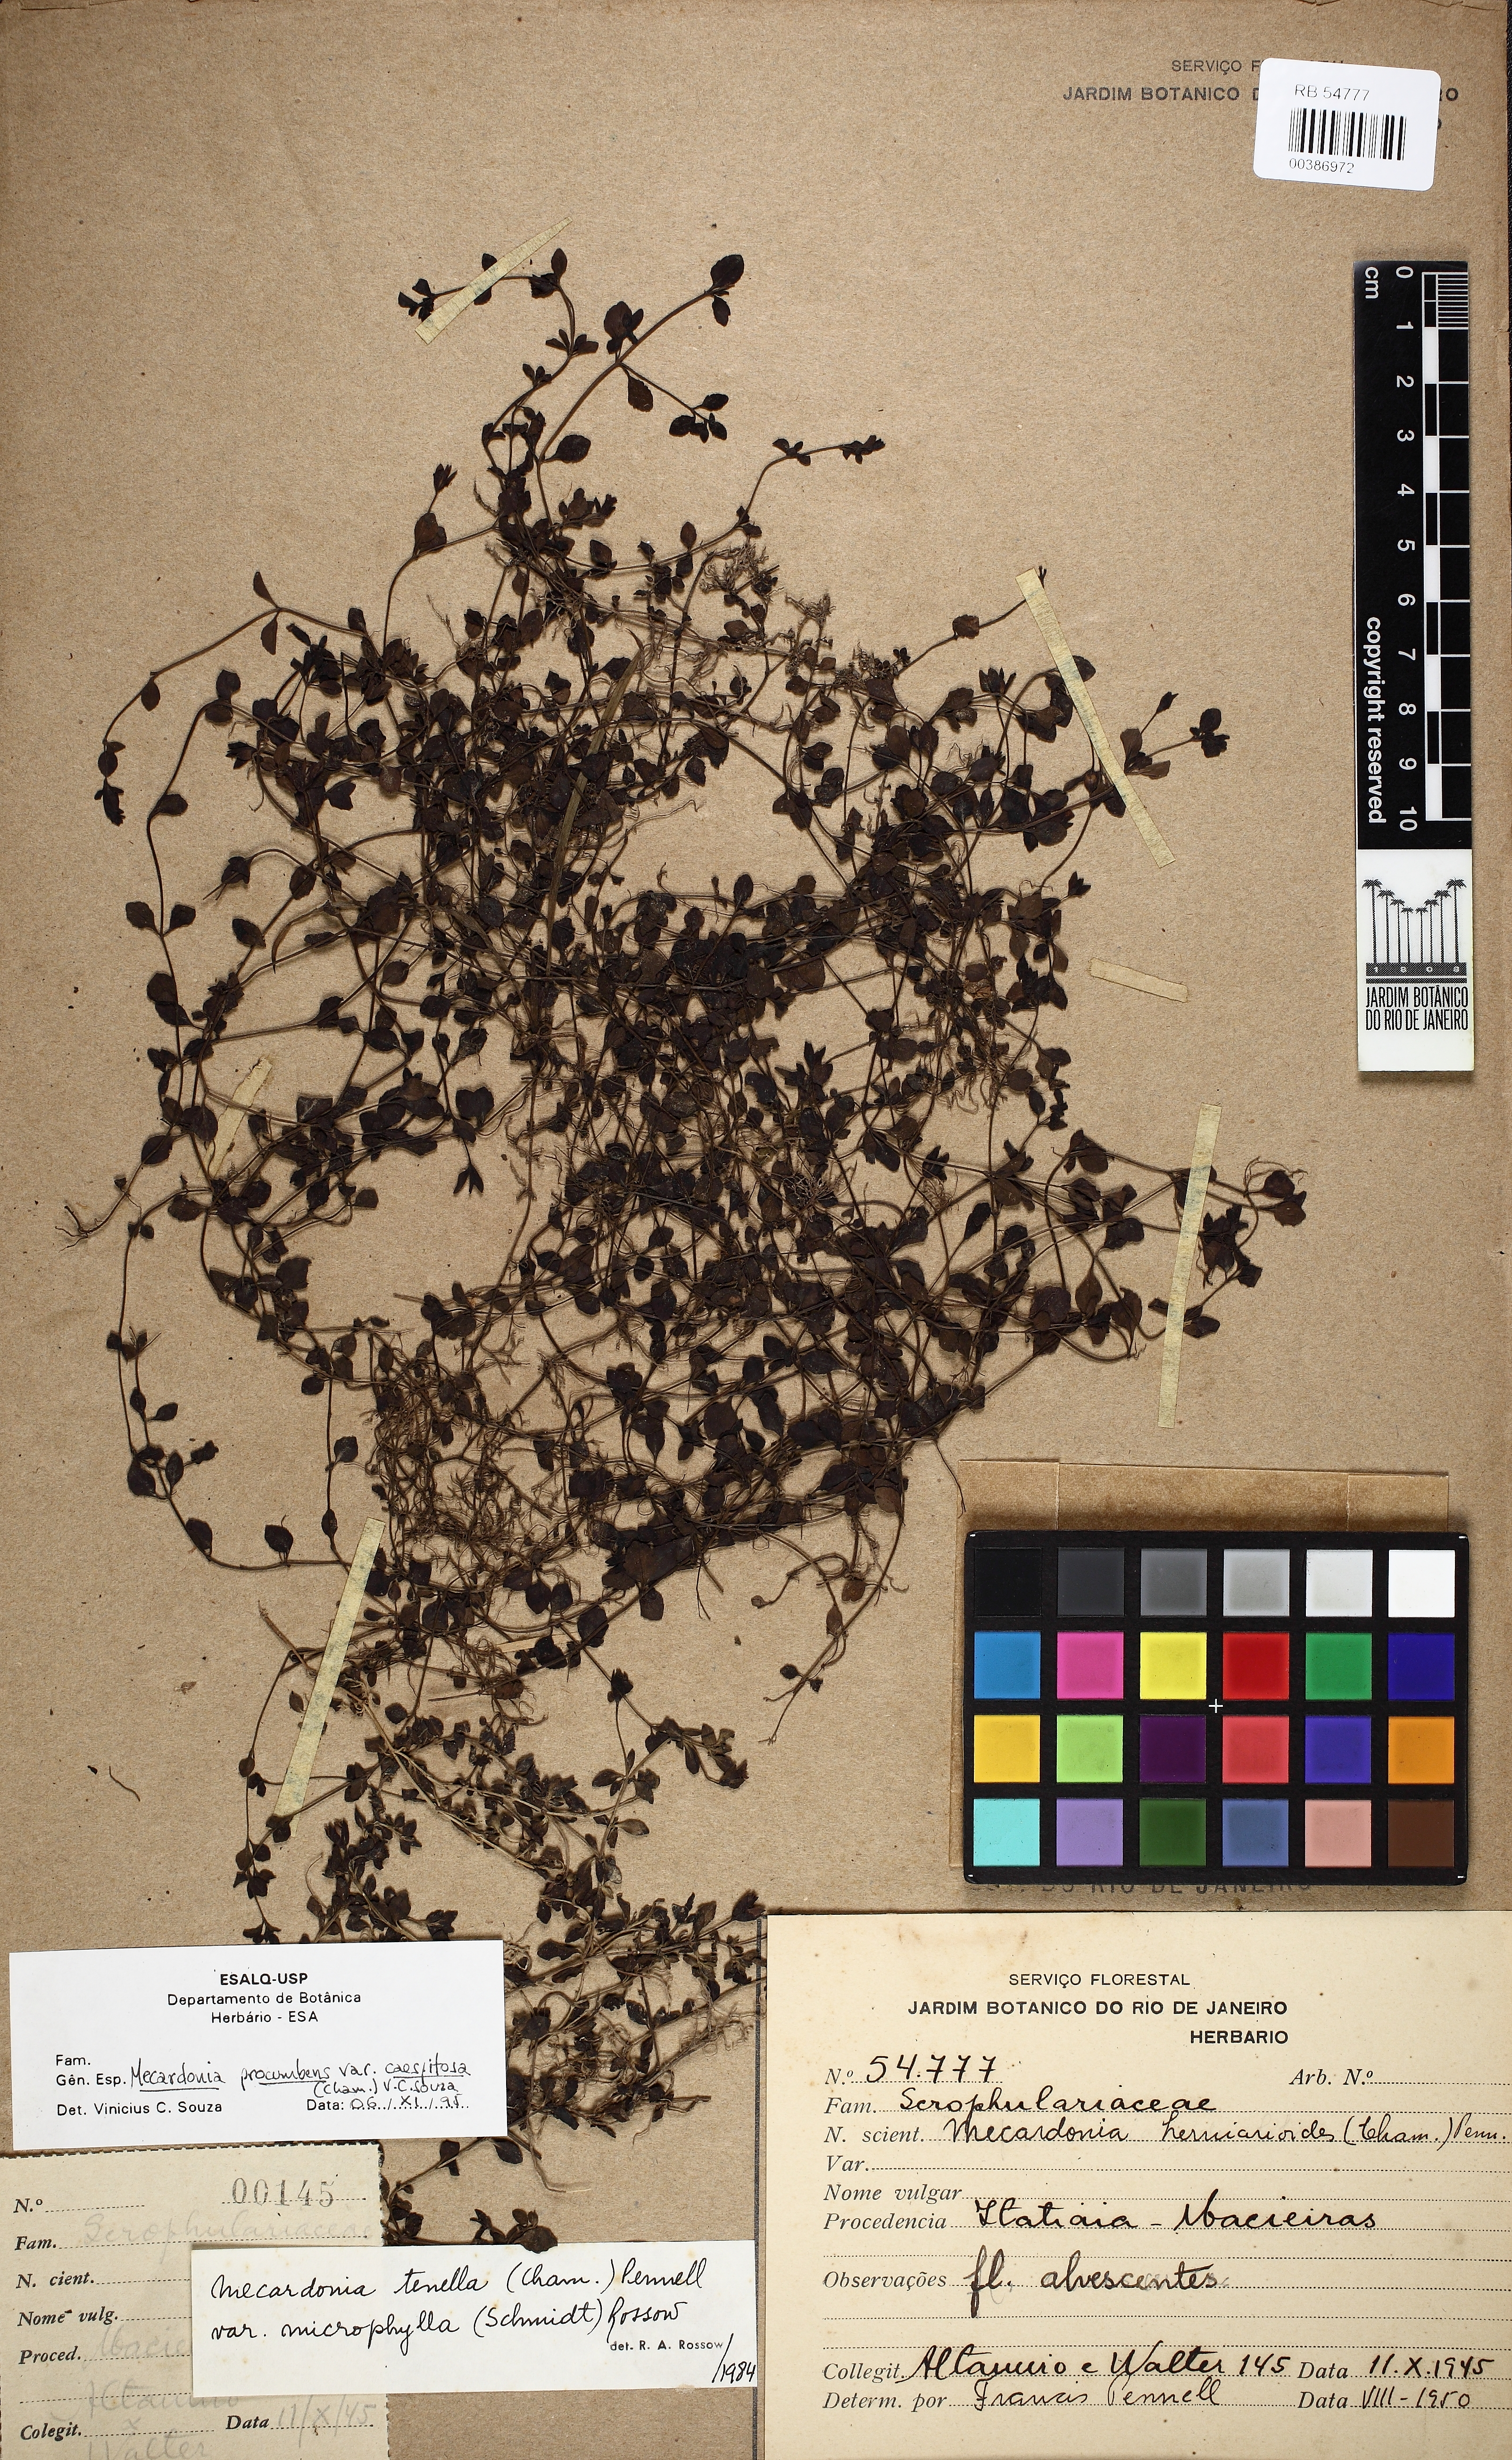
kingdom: Plantae
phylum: Tracheophyta
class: Magnoliopsida
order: Lamiales
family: Plantaginaceae
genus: Mecardonia
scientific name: Mecardonia procumbens
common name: Baby jump-up
